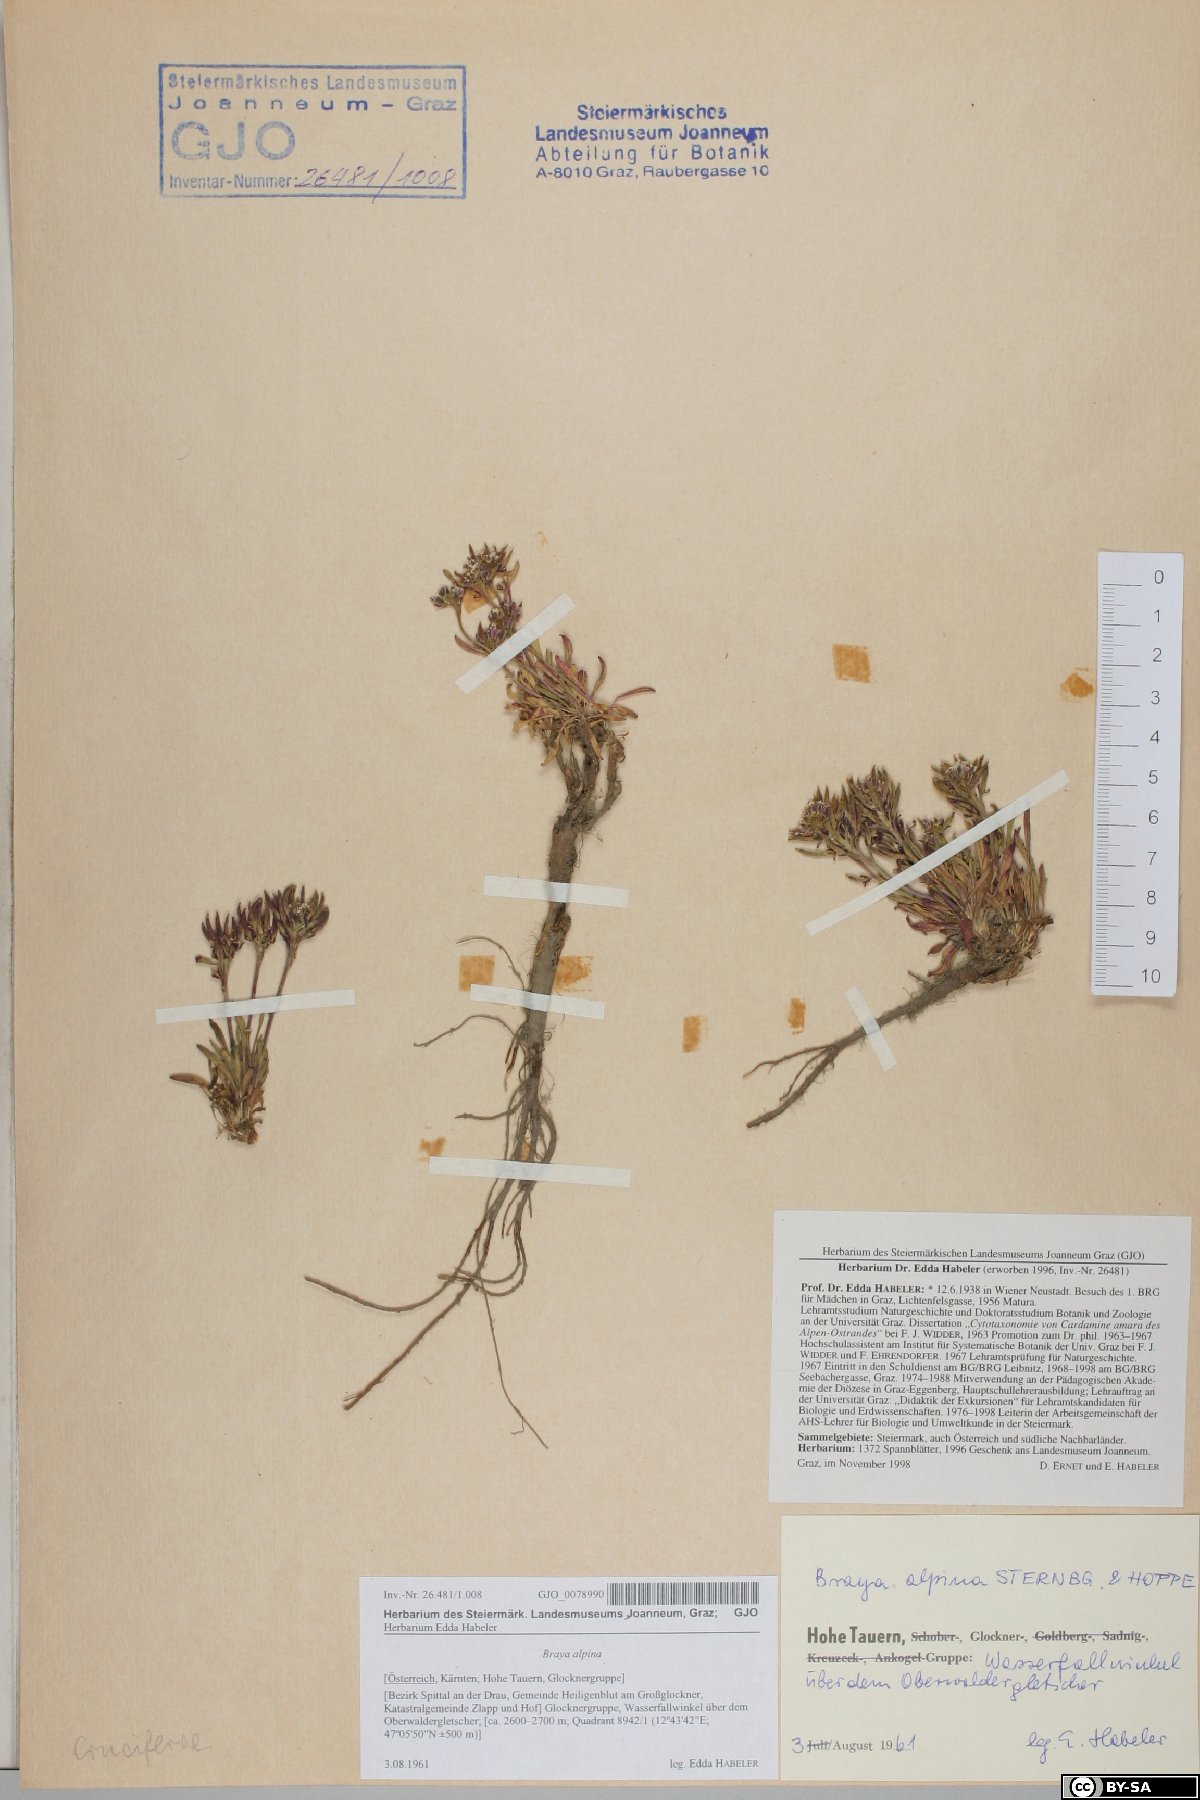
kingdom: Plantae
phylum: Tracheophyta
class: Magnoliopsida
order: Brassicales
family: Brassicaceae
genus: Braya
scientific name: Braya alpina
